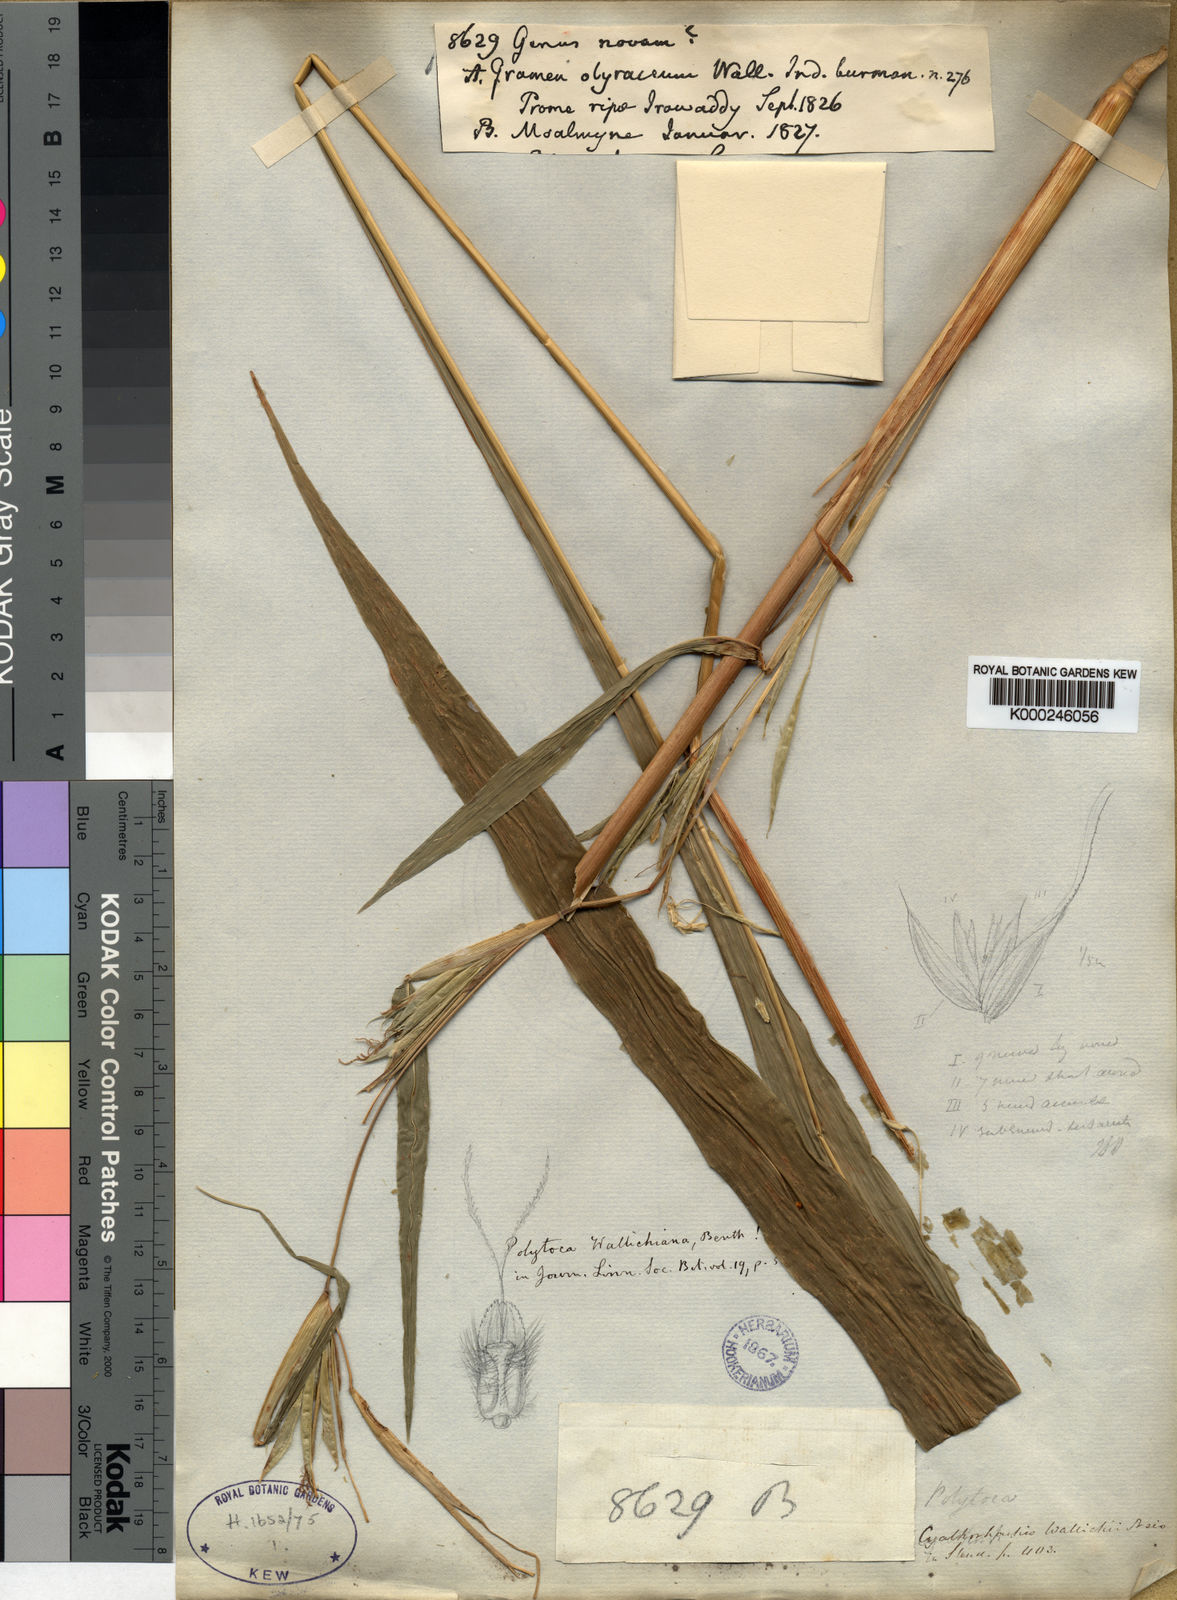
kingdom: Plantae
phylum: Tracheophyta
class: Liliopsida
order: Poales
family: Poaceae
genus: Polytoca
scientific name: Polytoca wallichiana
